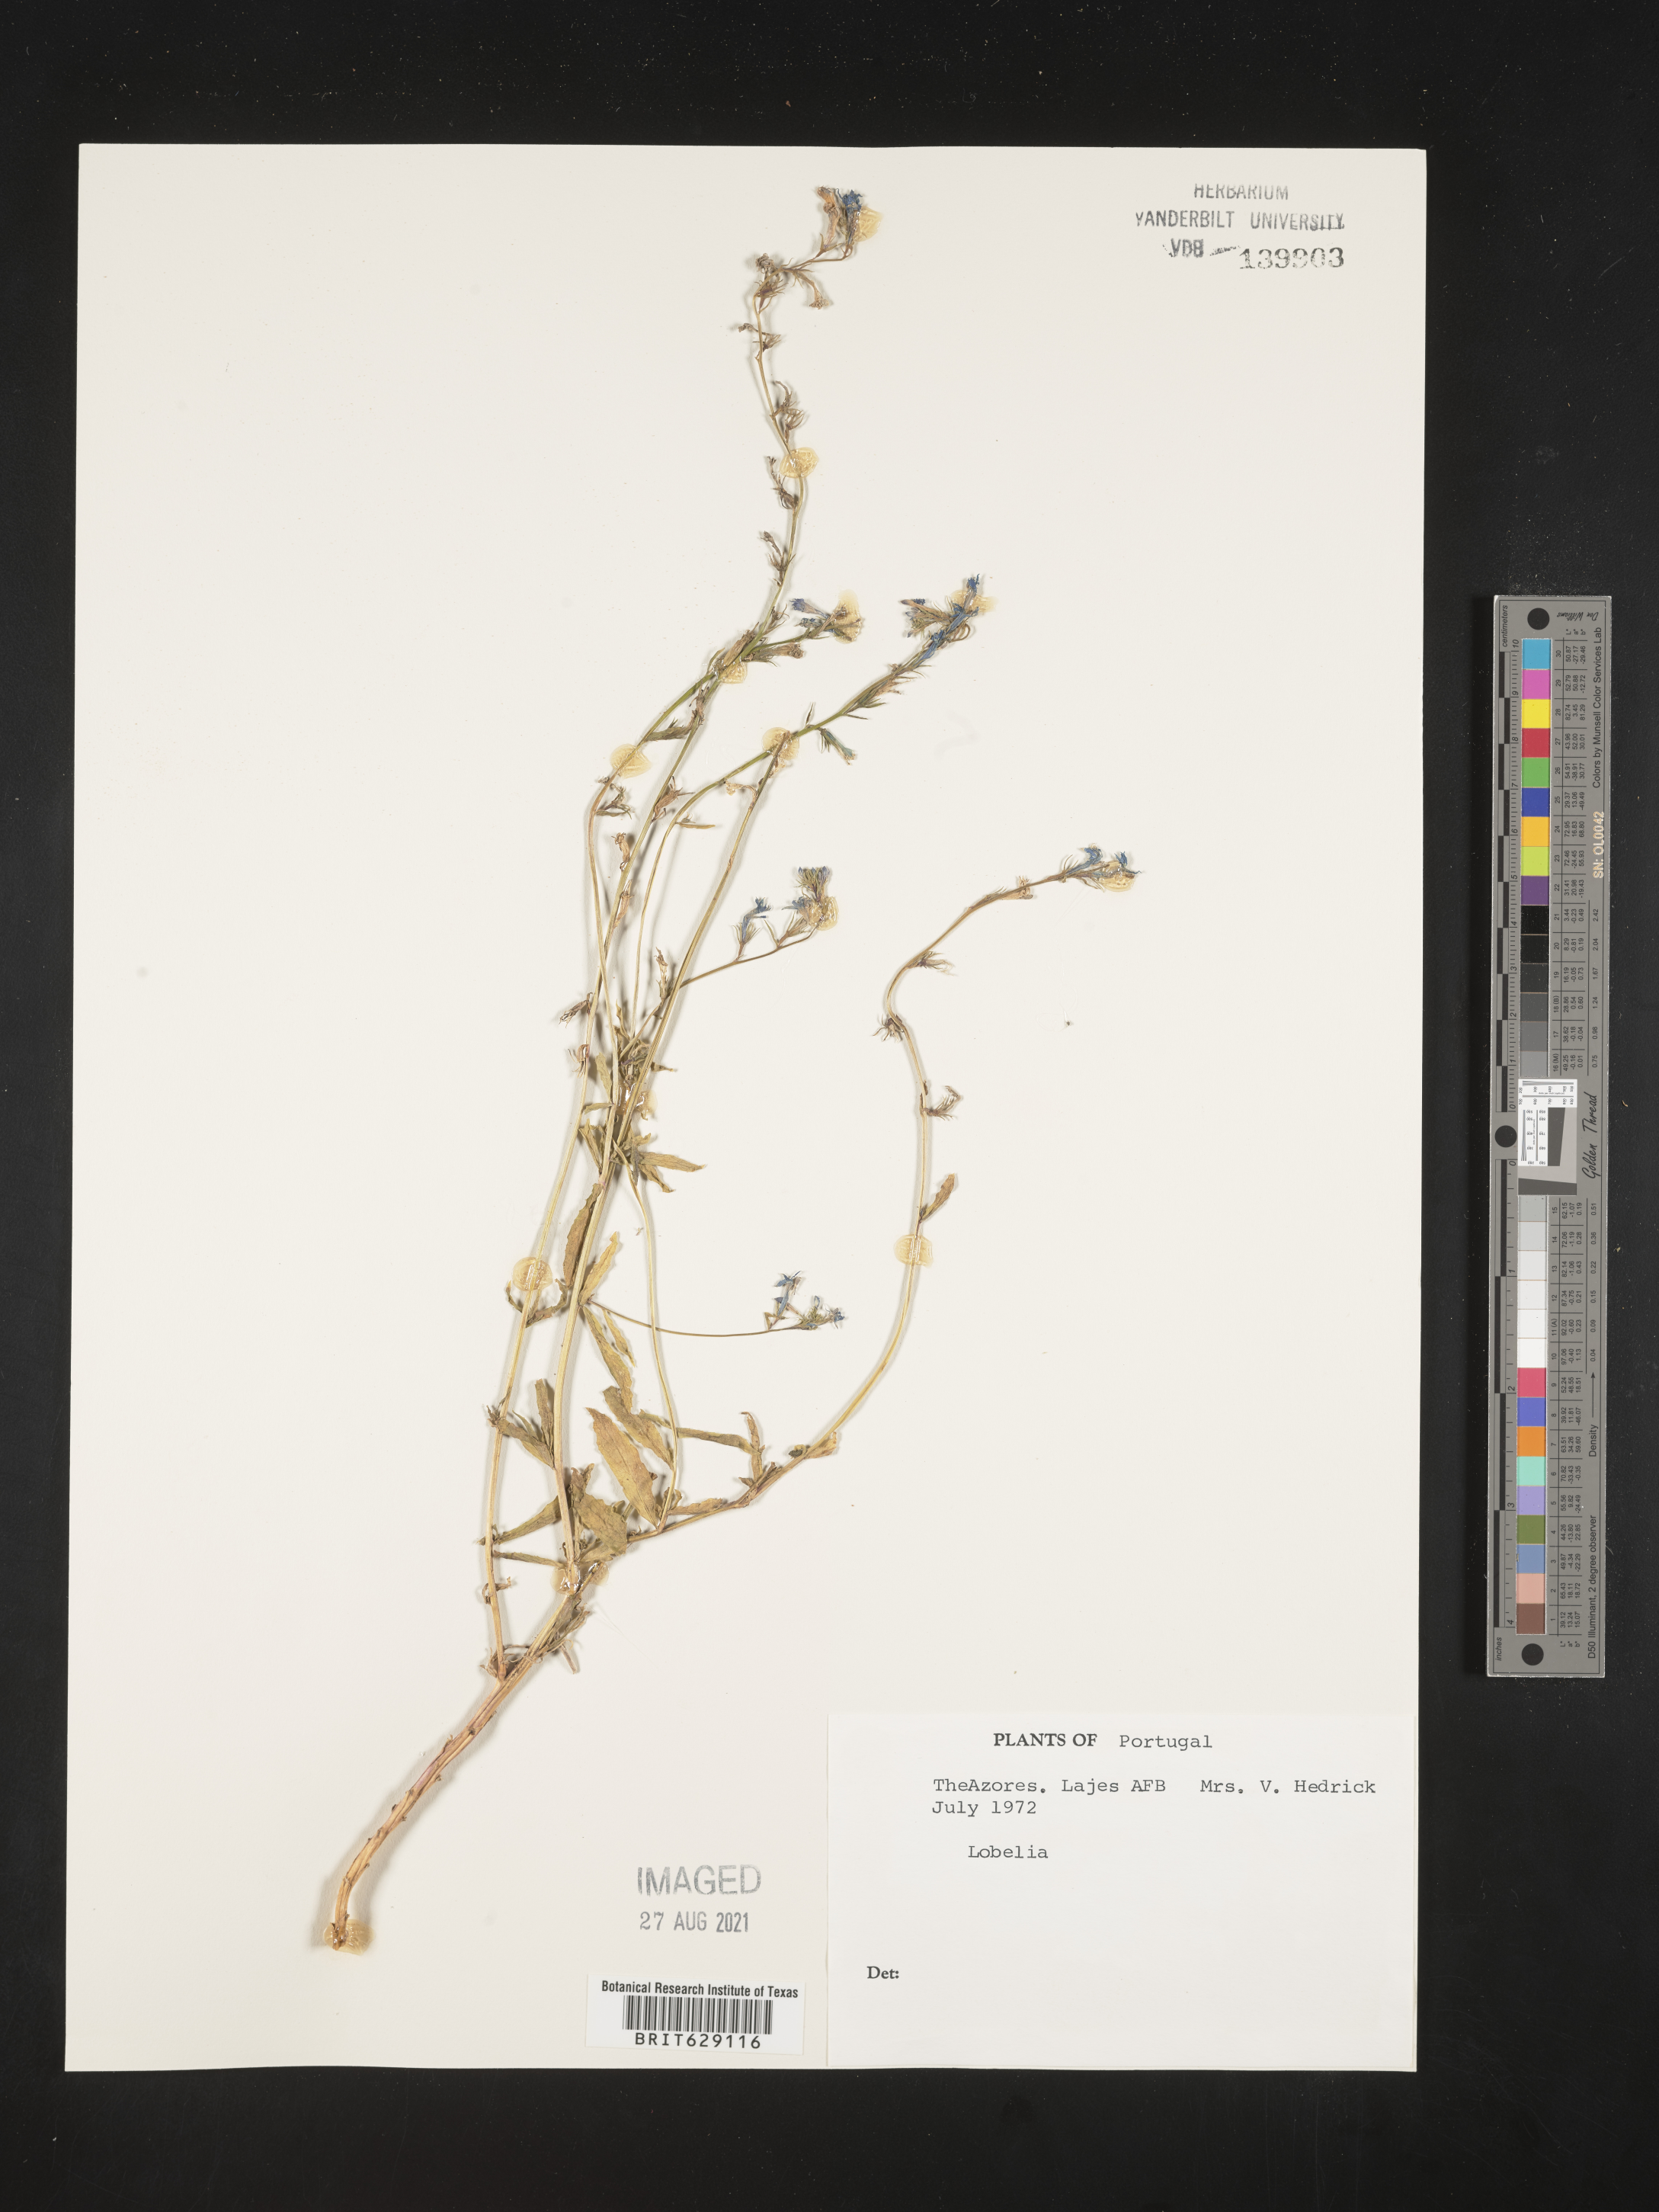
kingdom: Plantae
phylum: Tracheophyta
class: Magnoliopsida
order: Asterales
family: Campanulaceae
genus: Lobelia
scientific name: Lobelia
